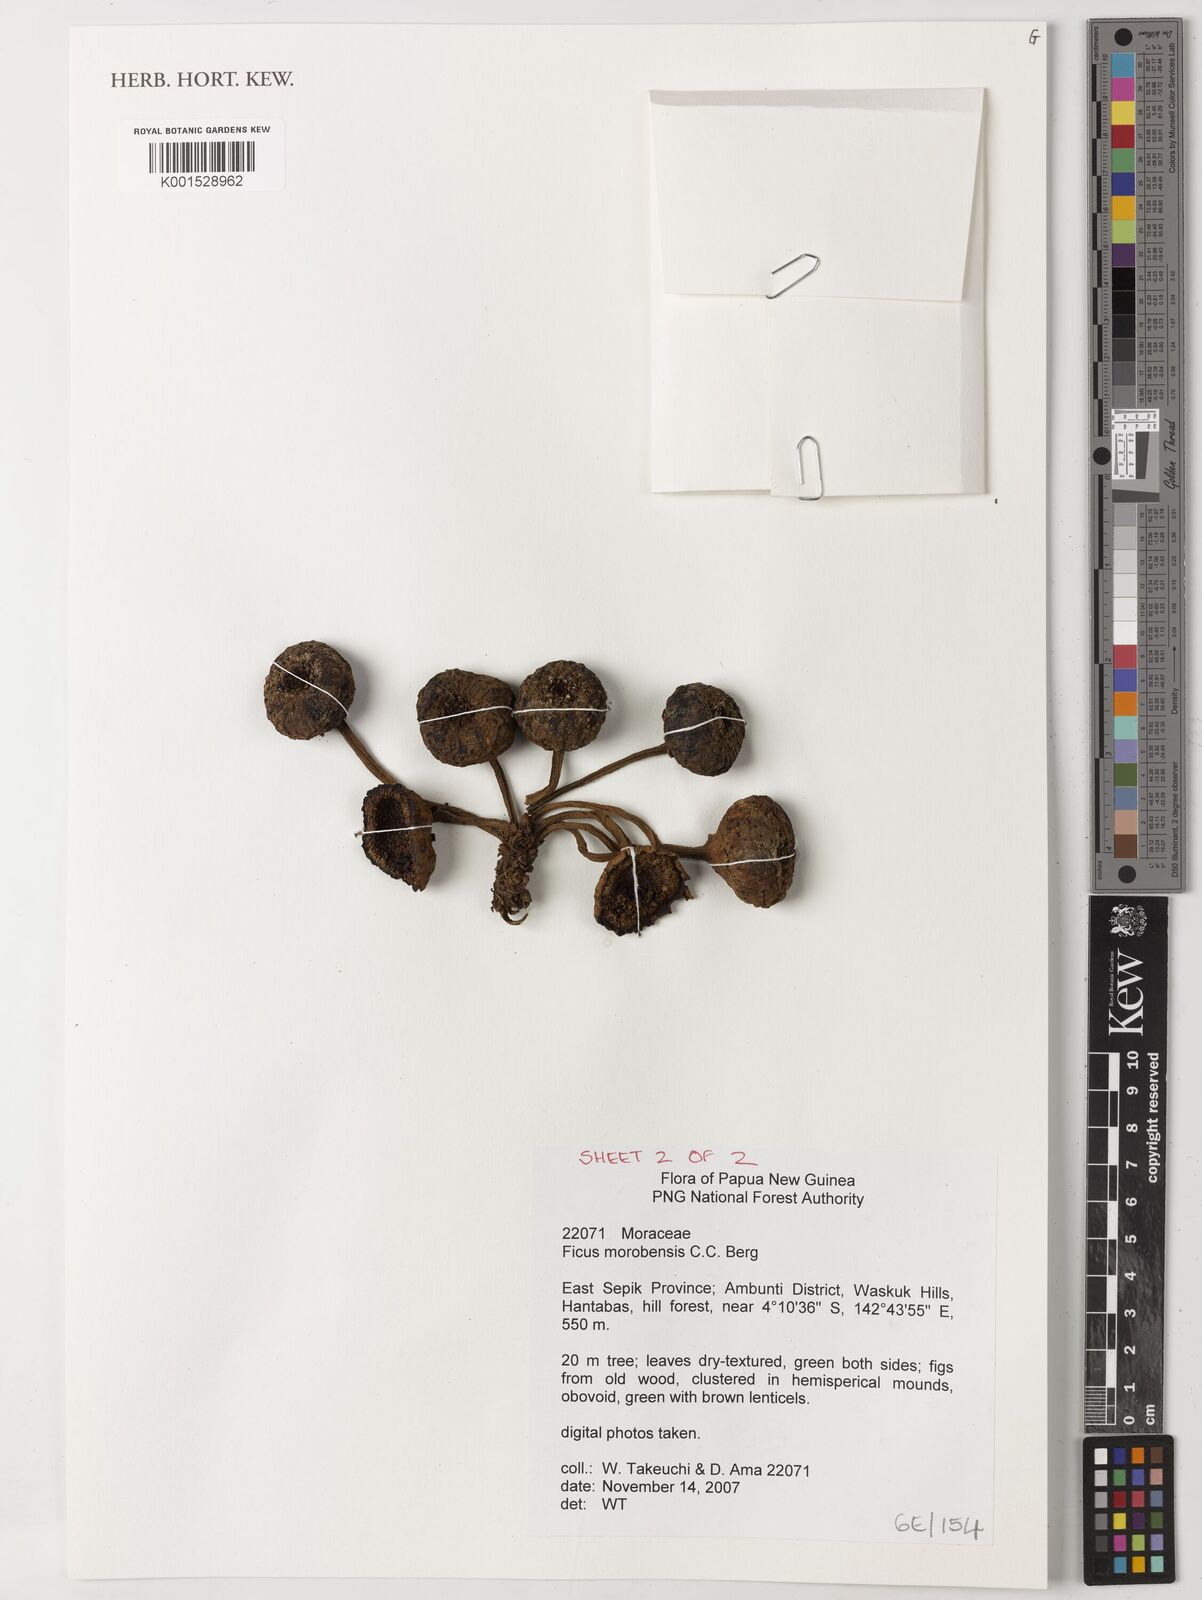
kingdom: Plantae
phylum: Tracheophyta
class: Magnoliopsida
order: Rosales
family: Moraceae
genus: Ficus
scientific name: Ficus morobensis
